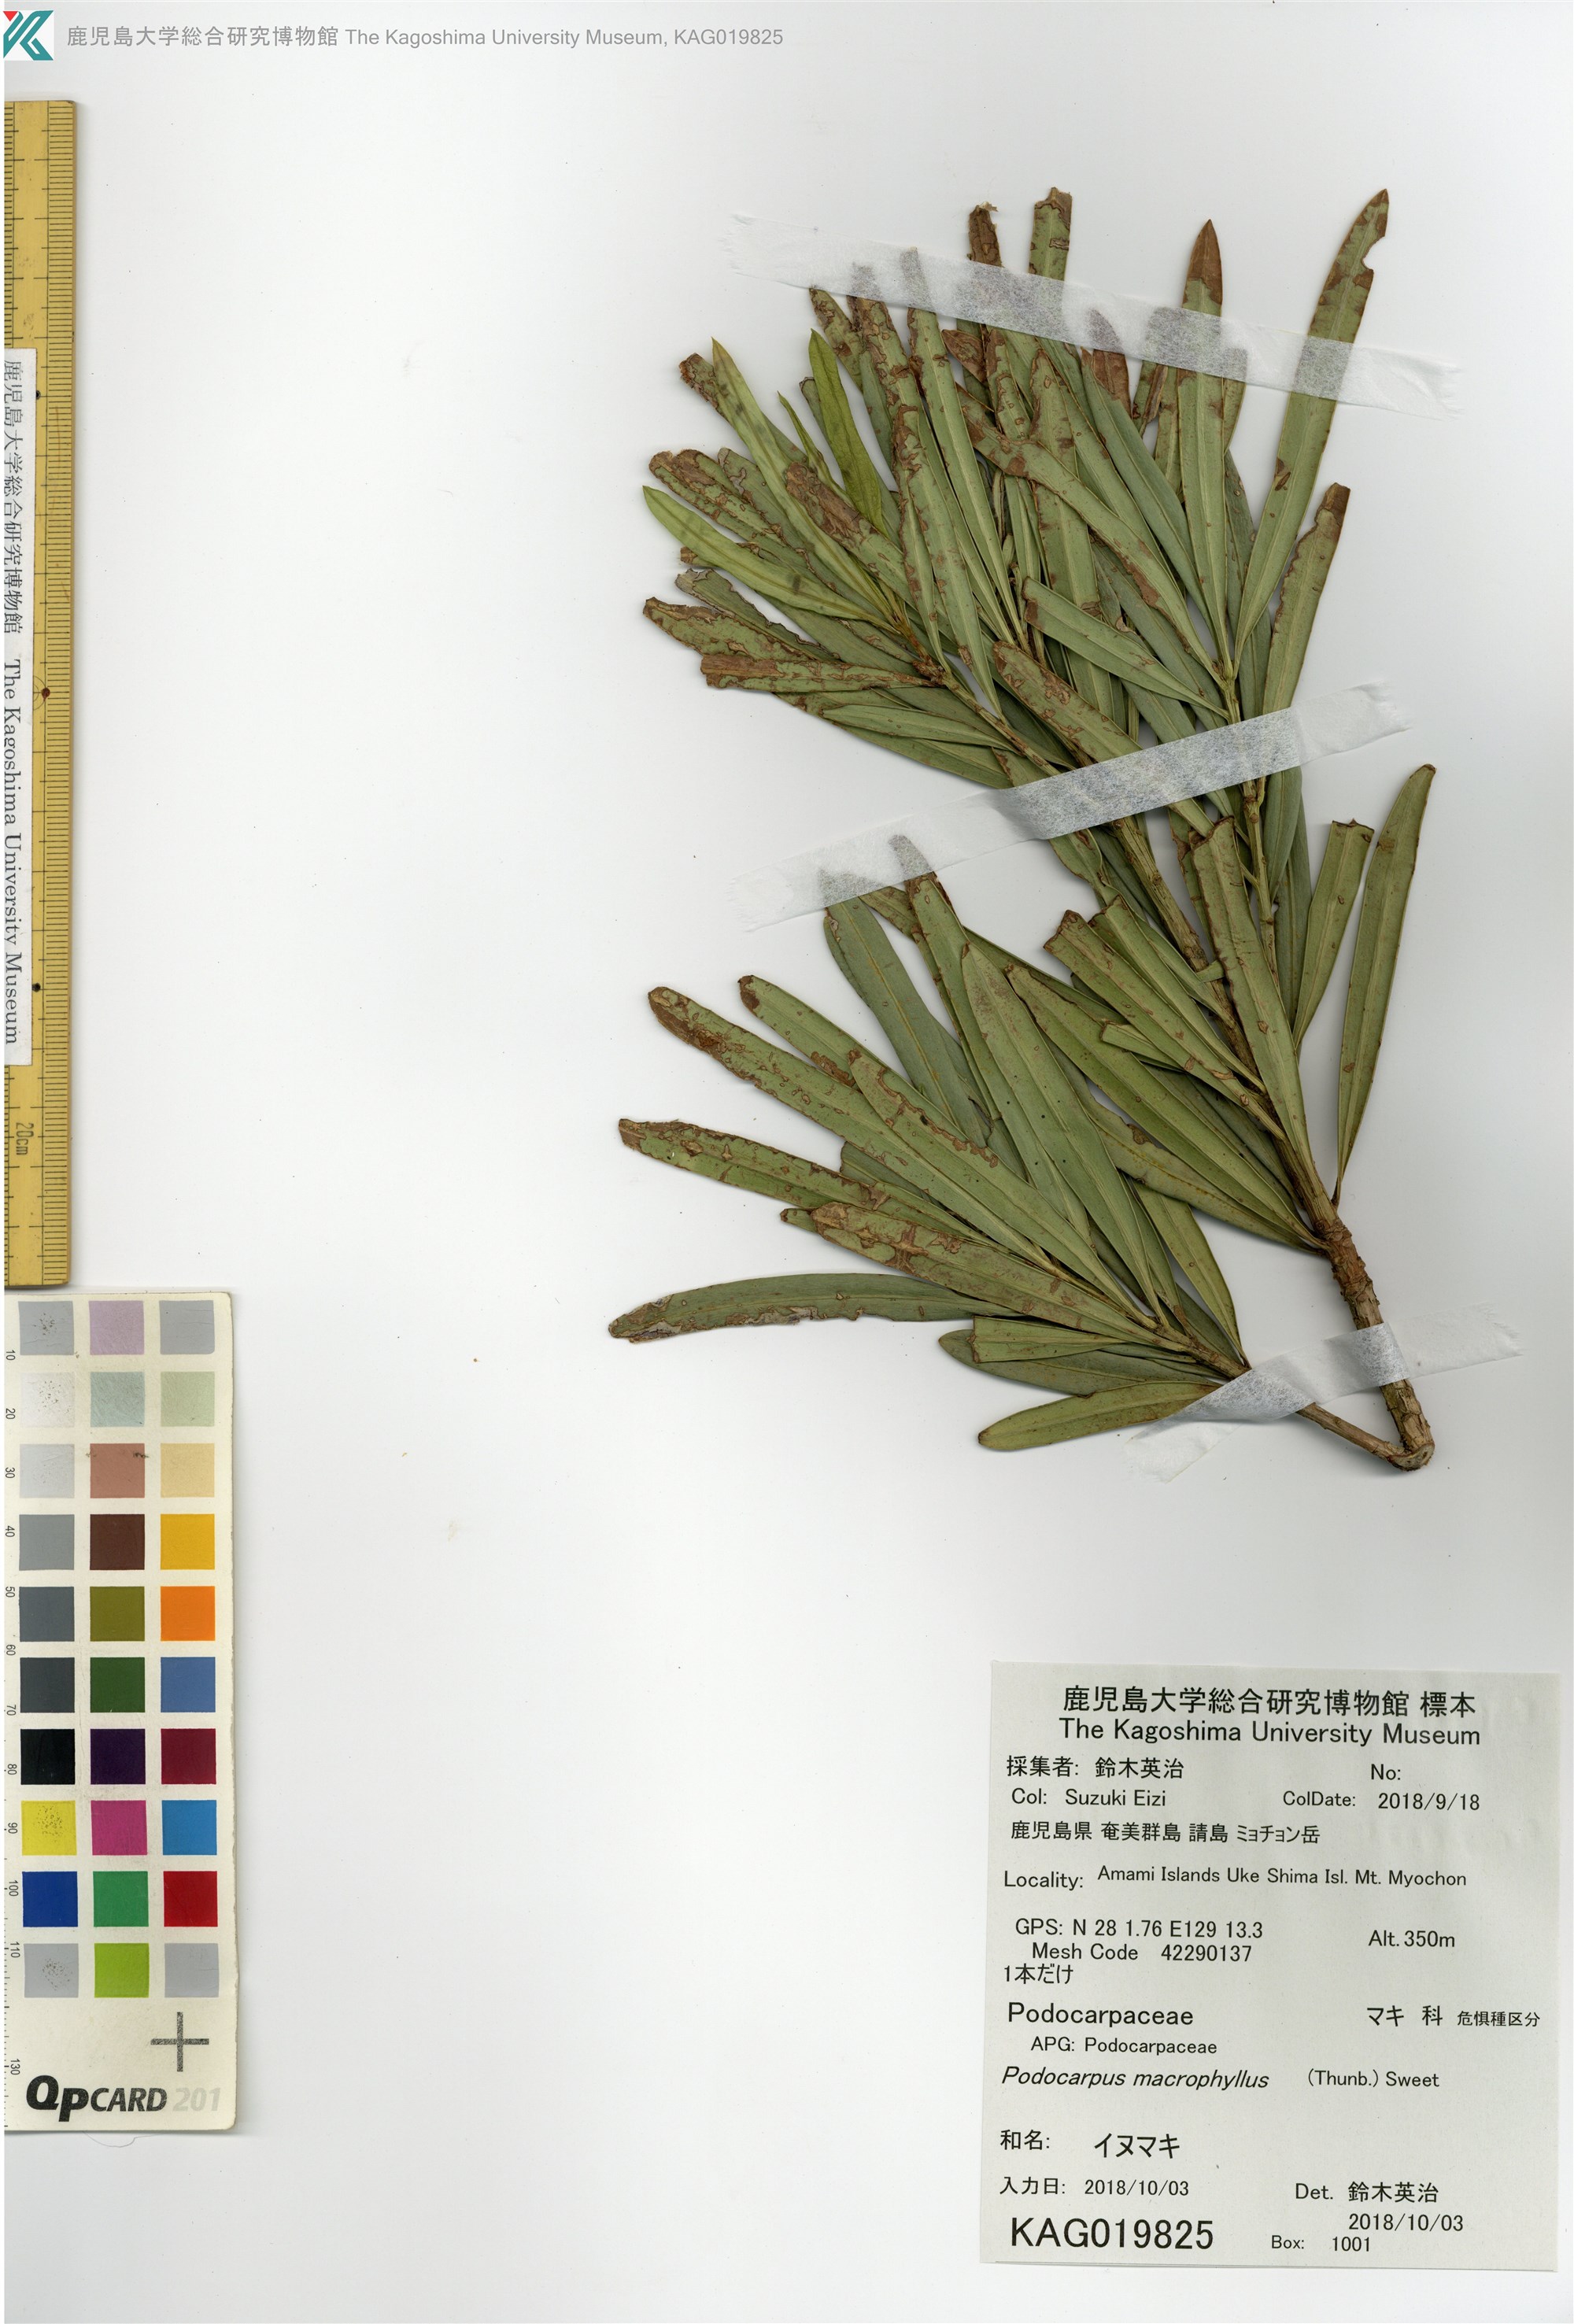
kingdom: Plantae
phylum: Tracheophyta
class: Pinopsida
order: Pinales
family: Podocarpaceae
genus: Podocarpus
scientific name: Podocarpus macrophyllus
